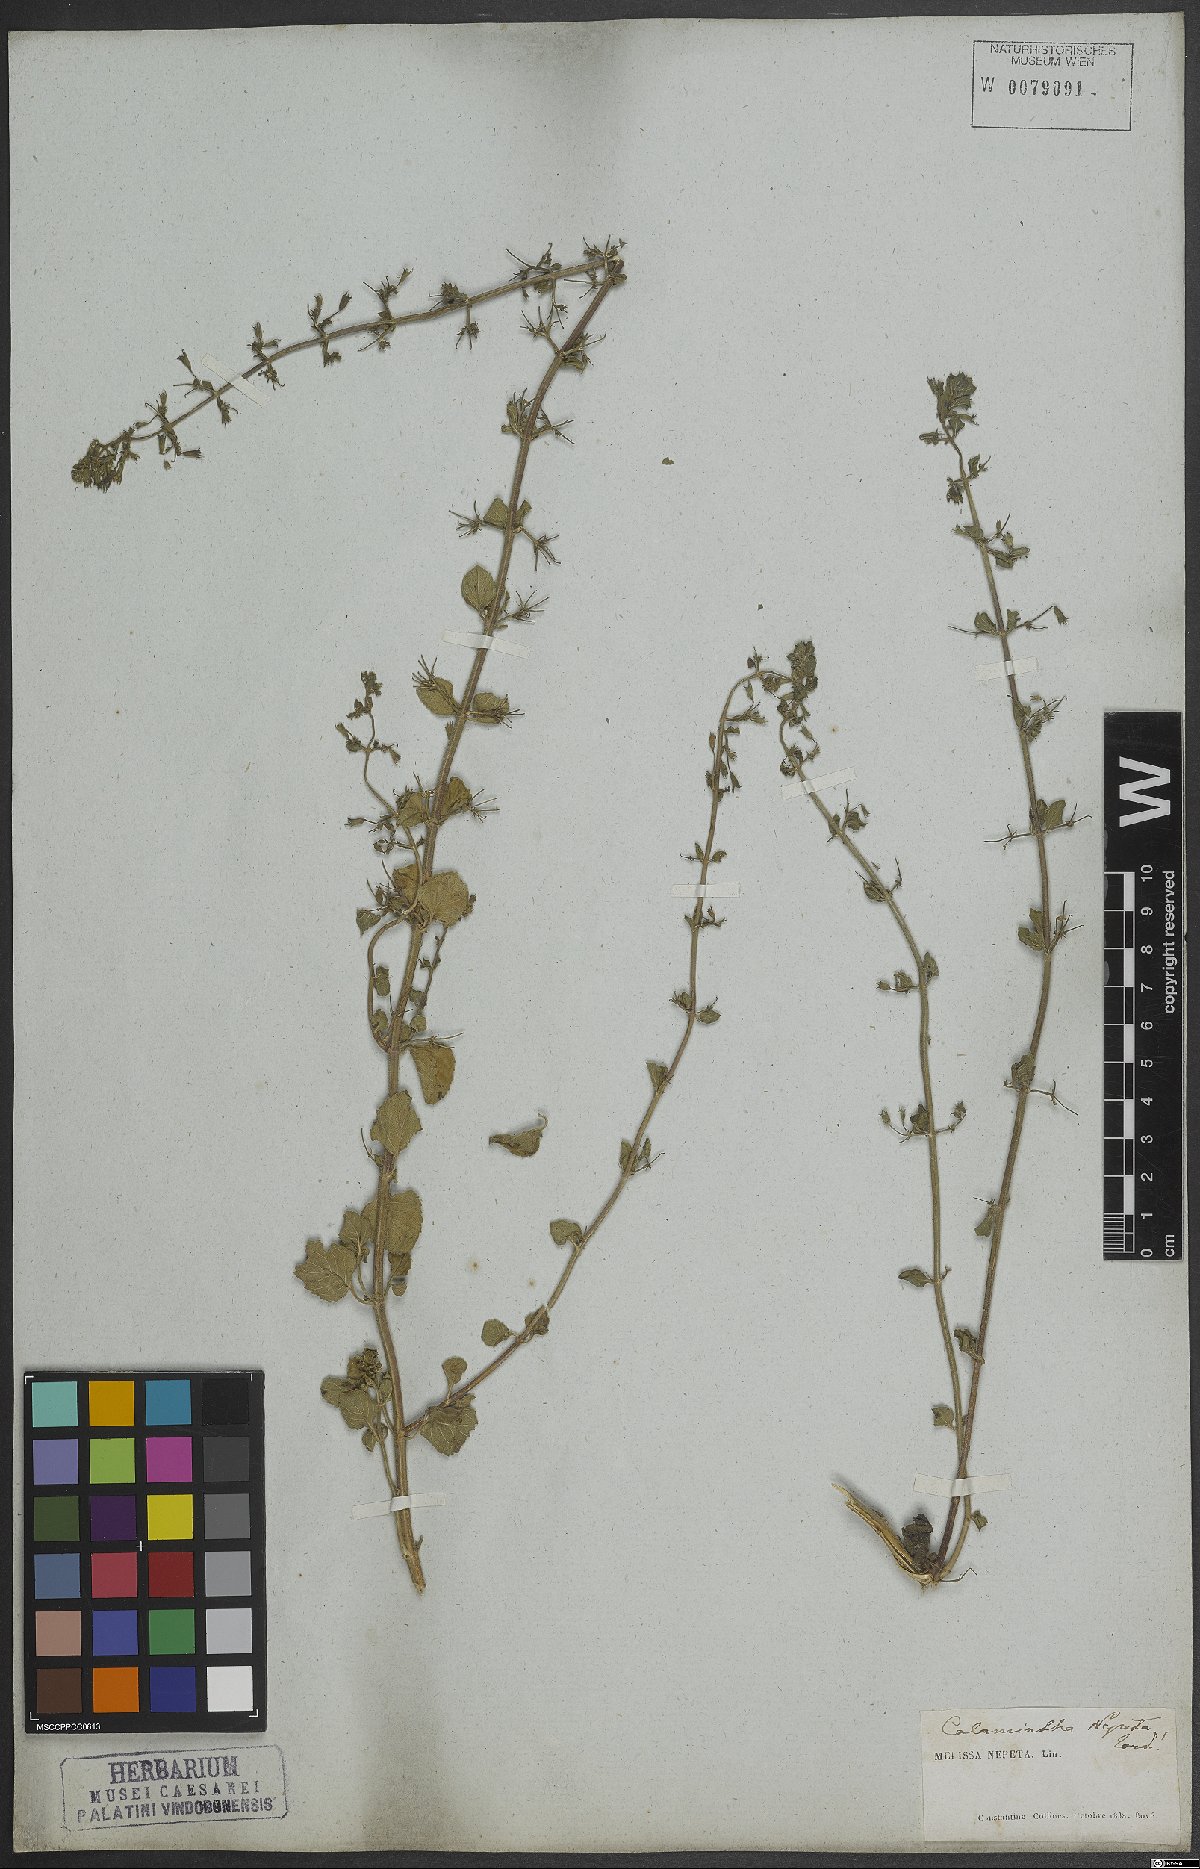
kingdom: Plantae
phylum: Tracheophyta
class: Magnoliopsida
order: Lamiales
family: Lamiaceae
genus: Clinopodium
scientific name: Clinopodium nepeta
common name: Lesser calamint
